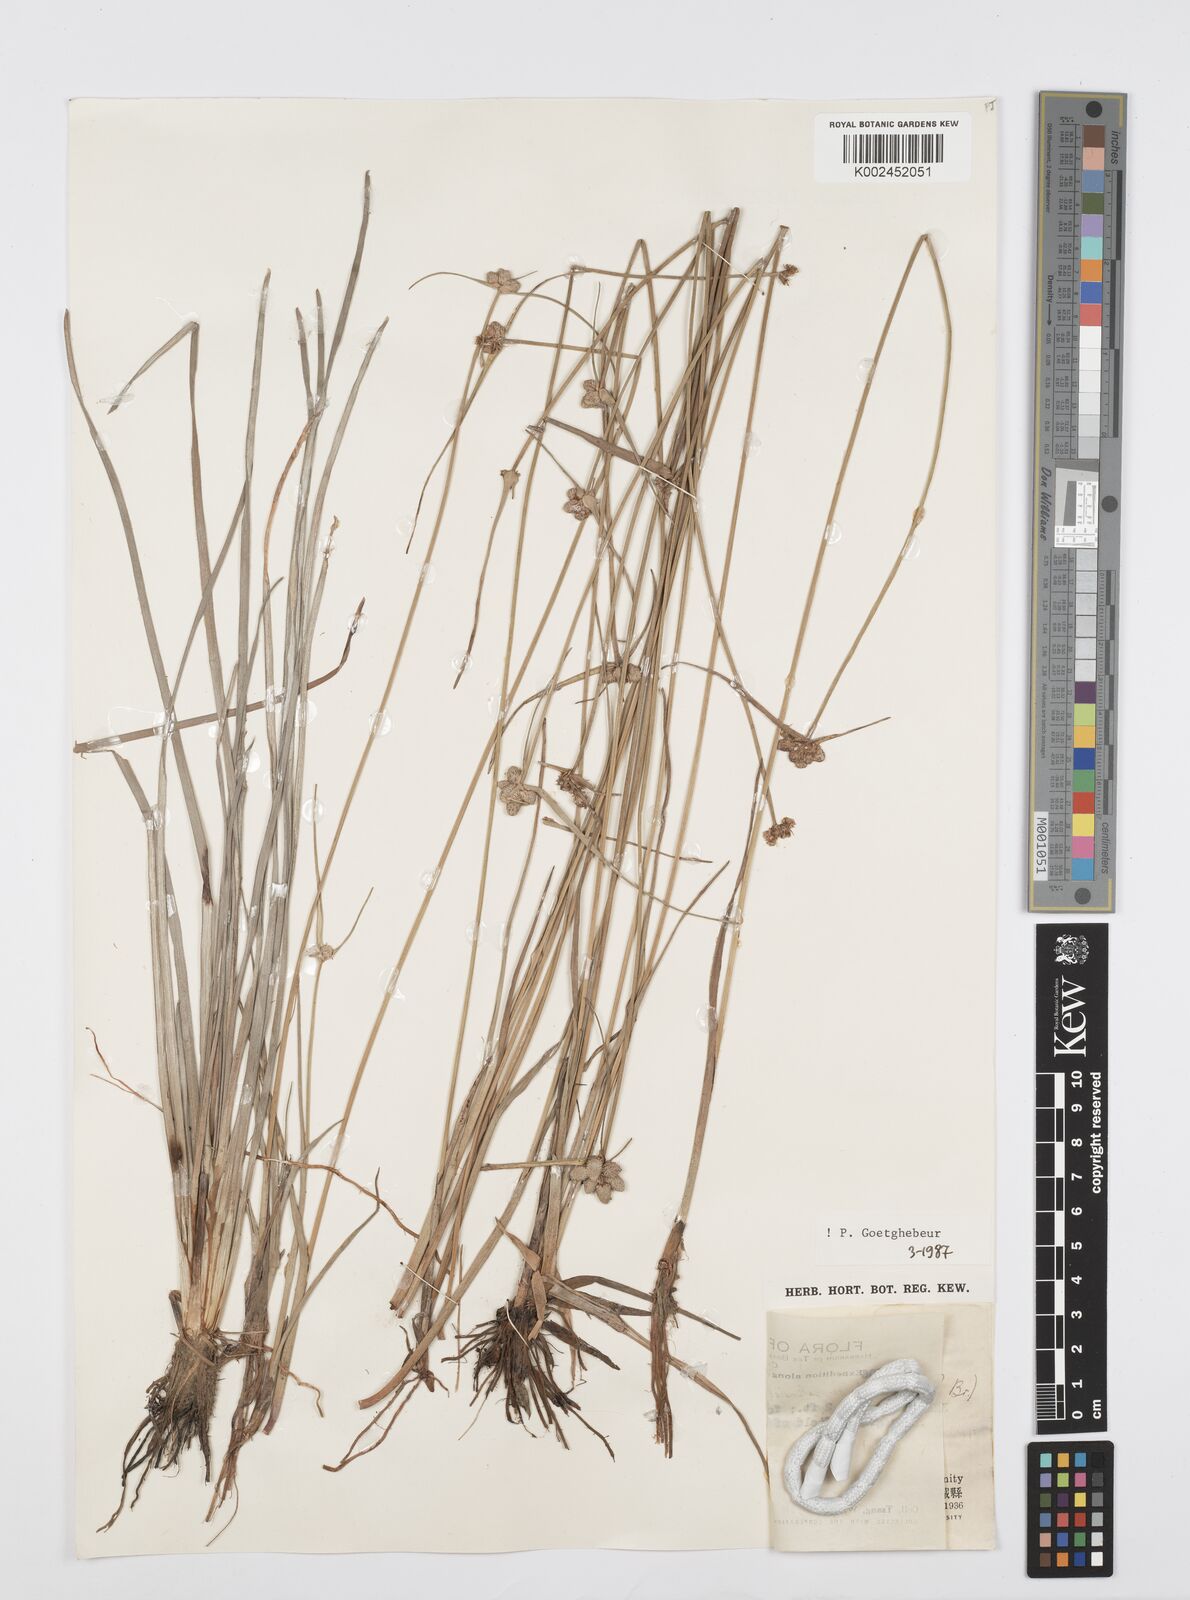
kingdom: Plantae
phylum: Tracheophyta
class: Liliopsida
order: Poales
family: Cyperaceae
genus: Cyperus
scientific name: Cyperus albescens
